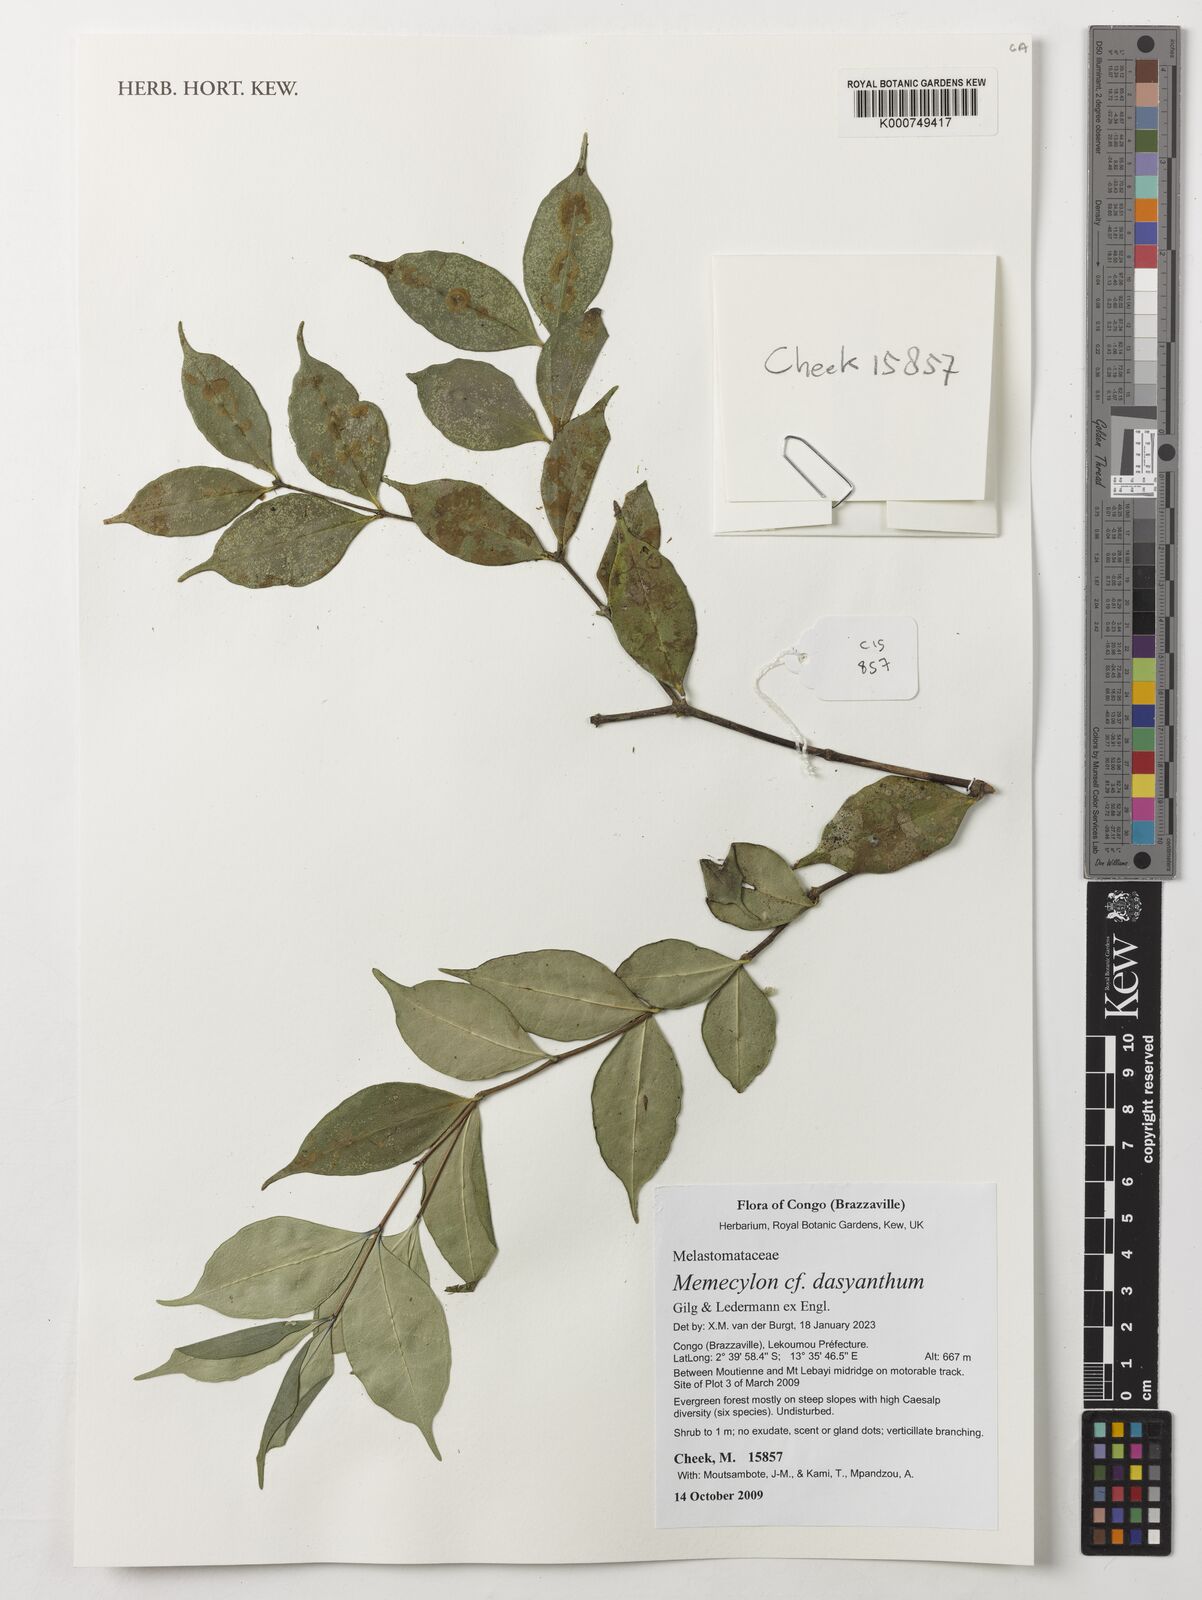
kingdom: Plantae
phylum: Tracheophyta
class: Magnoliopsida
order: Myrtales
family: Melastomataceae
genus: Memecylon
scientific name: Memecylon dasyanthum
